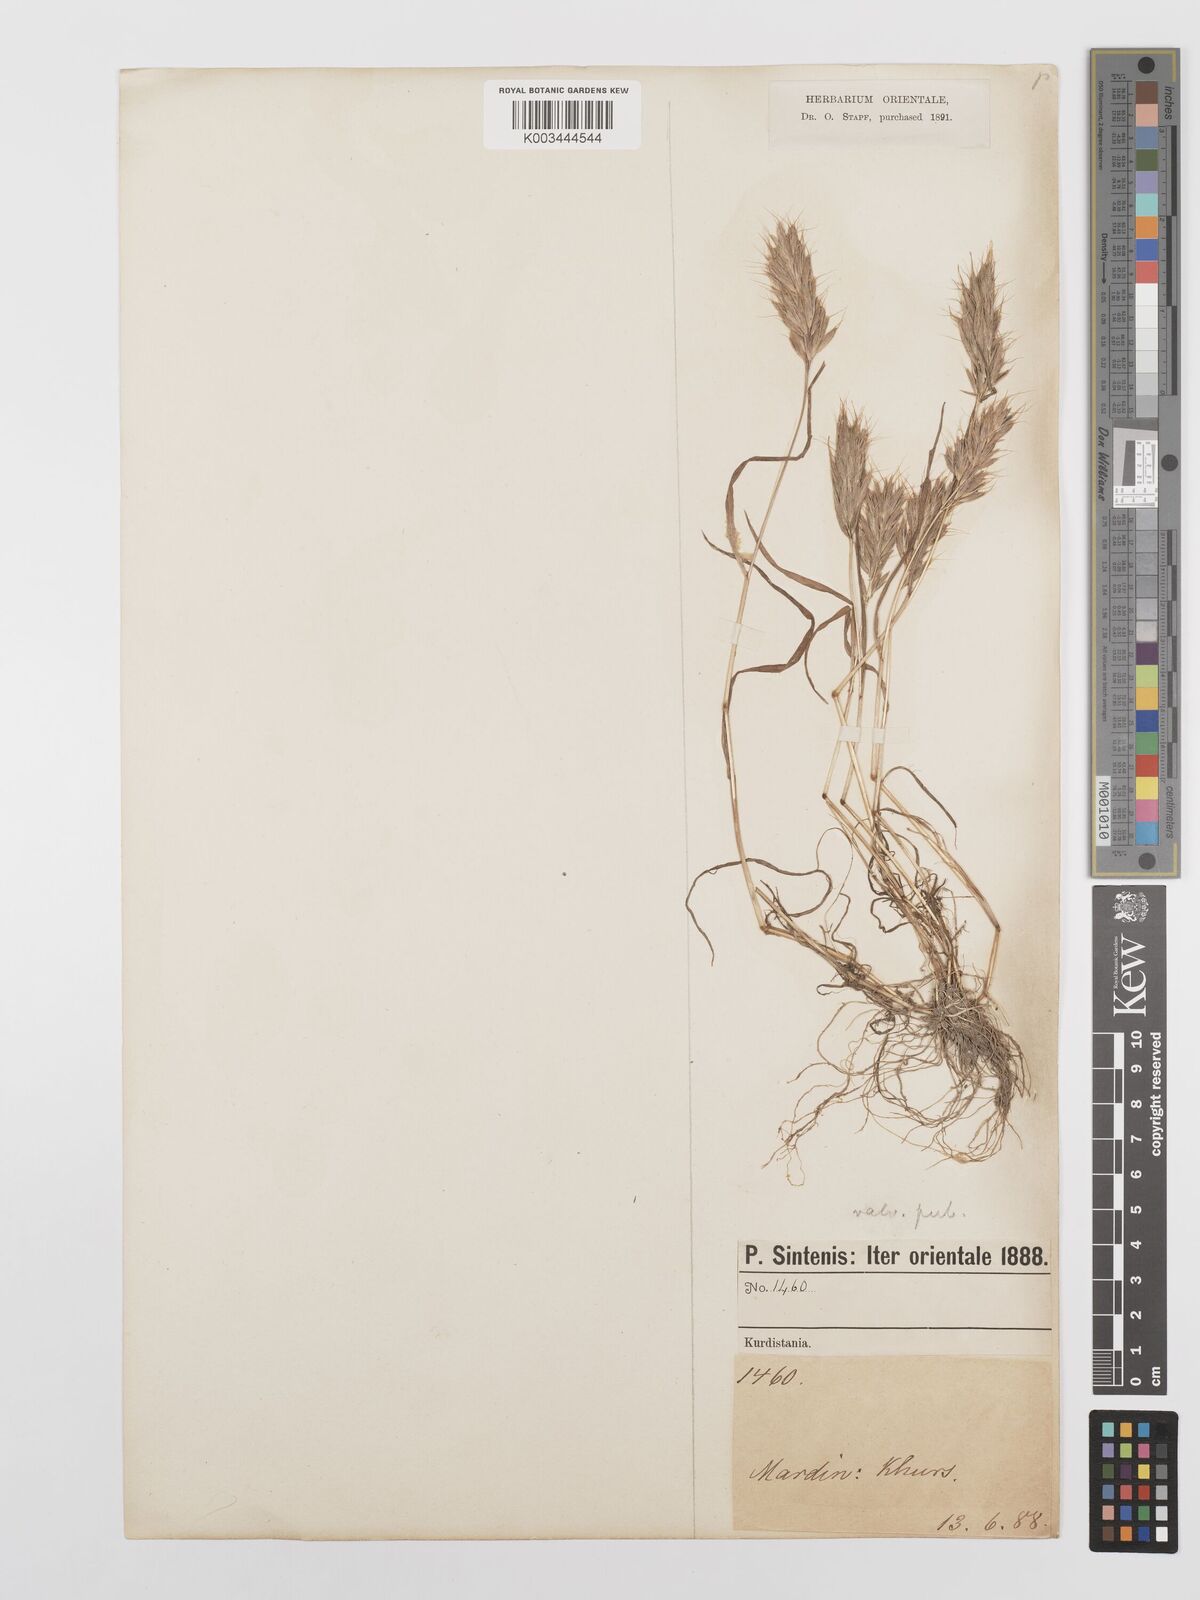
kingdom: Plantae
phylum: Tracheophyta
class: Liliopsida
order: Poales
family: Poaceae
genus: Bromus
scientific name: Bromus scoparius
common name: Broom brome
